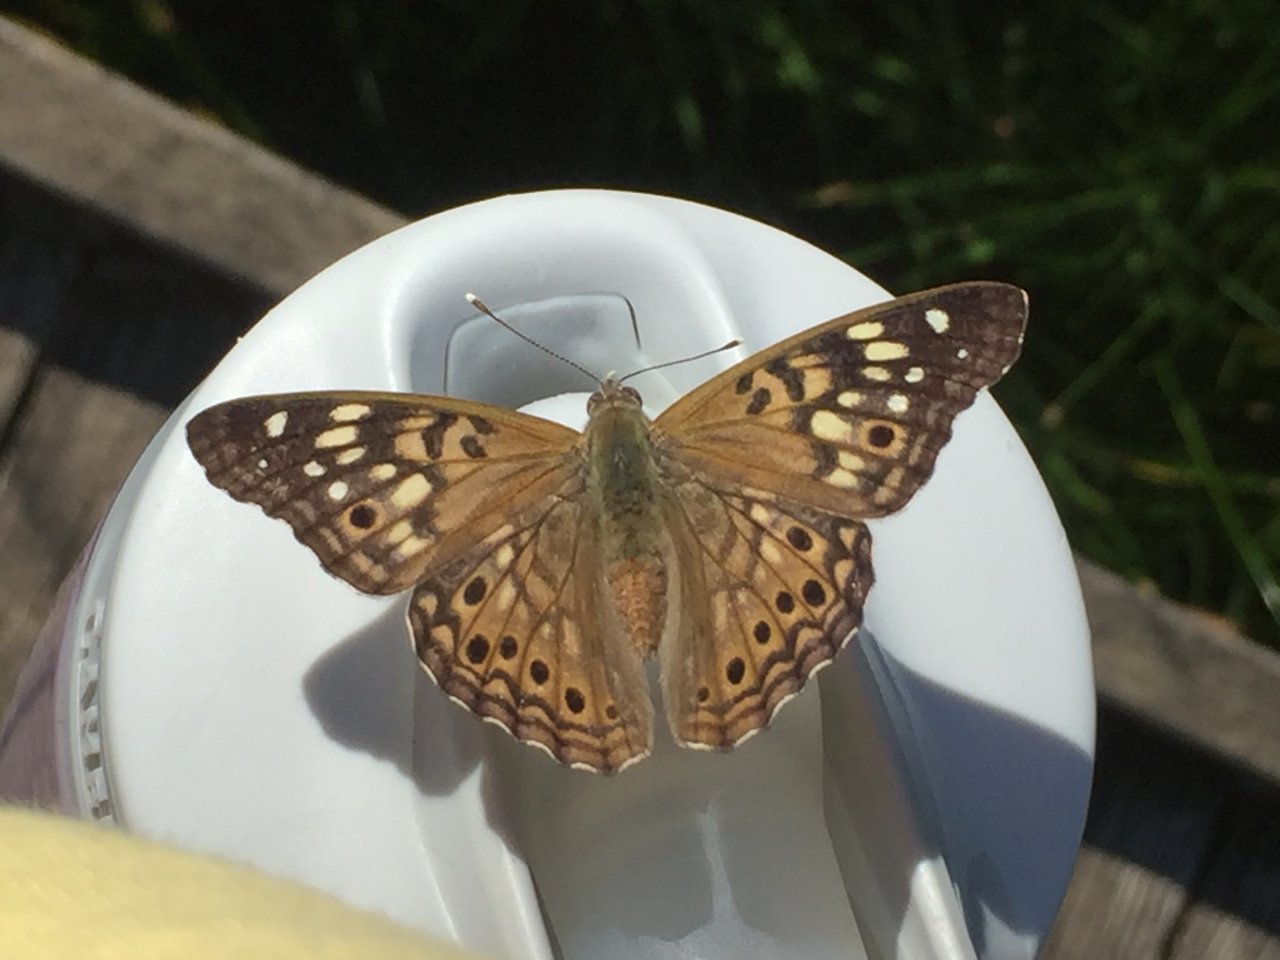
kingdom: Animalia
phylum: Arthropoda
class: Insecta
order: Lepidoptera
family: Nymphalidae
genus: Asterocampa
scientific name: Asterocampa celtis
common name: Hackberry Emperor
